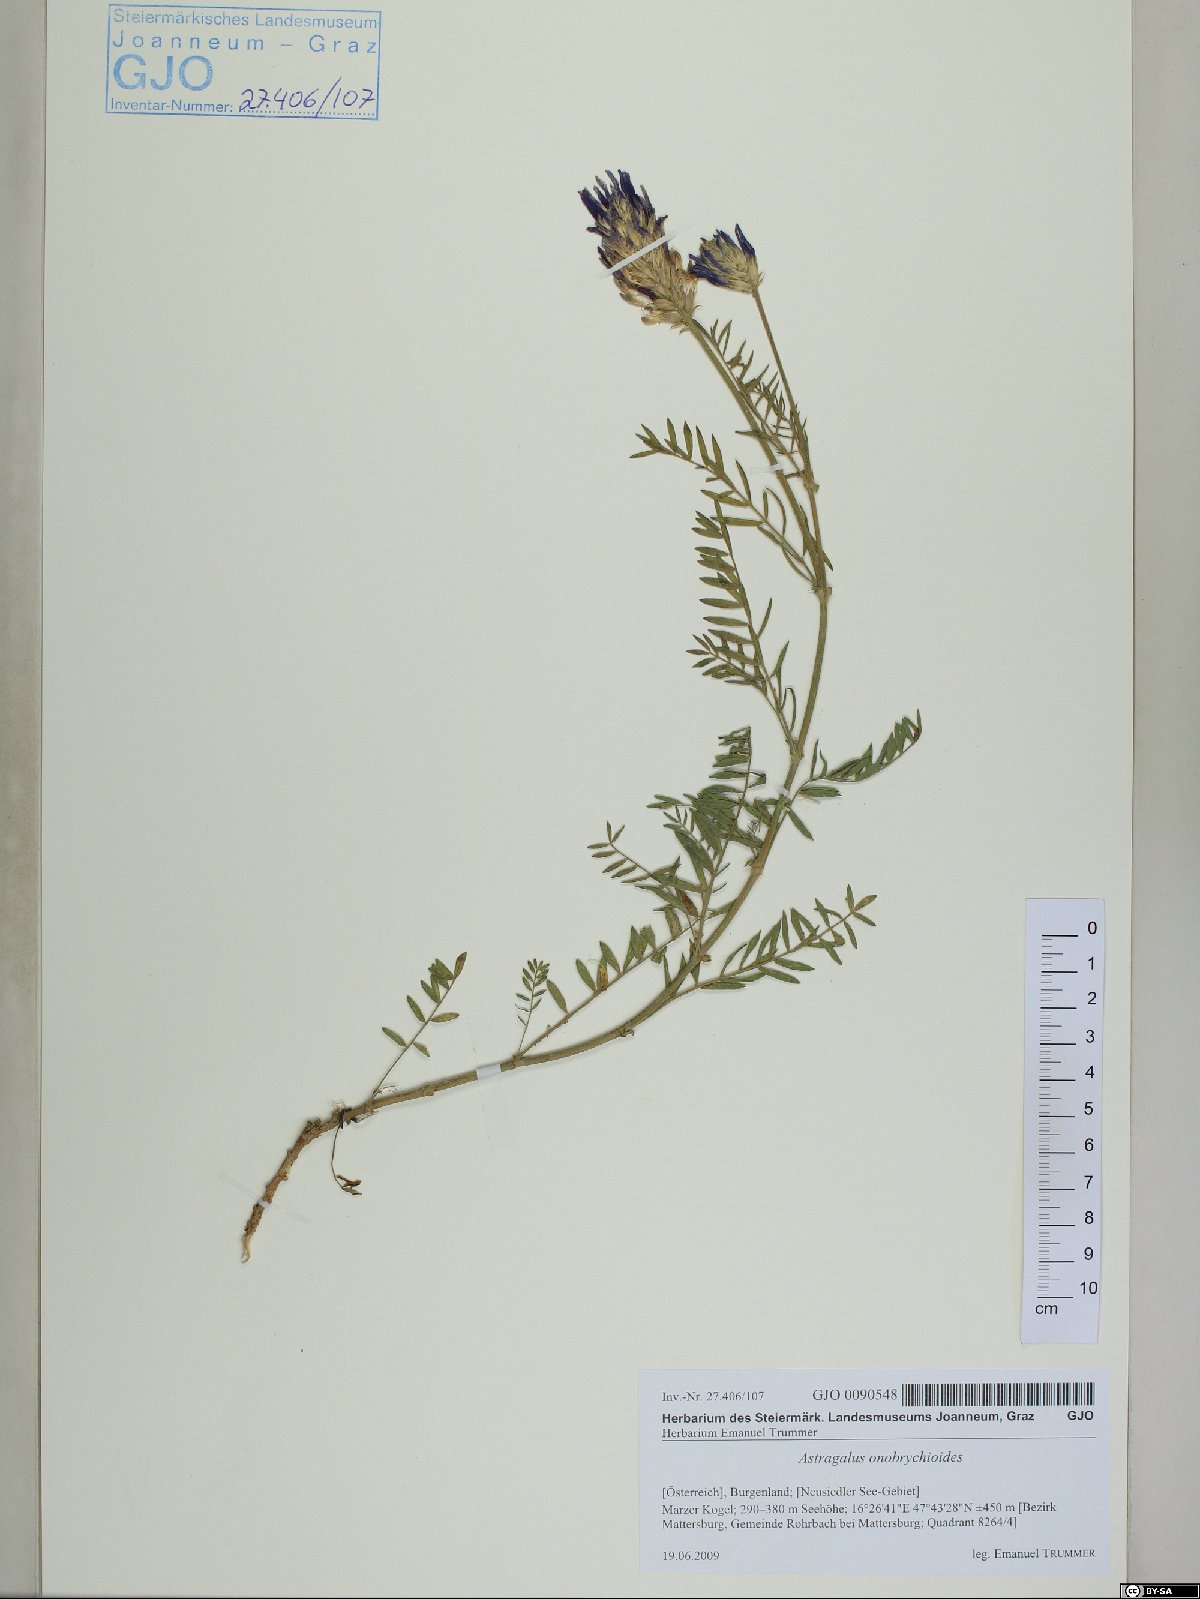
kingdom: Plantae
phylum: Tracheophyta
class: Magnoliopsida
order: Fabales
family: Fabaceae
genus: Astragalus
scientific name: Astragalus onobrychioides
